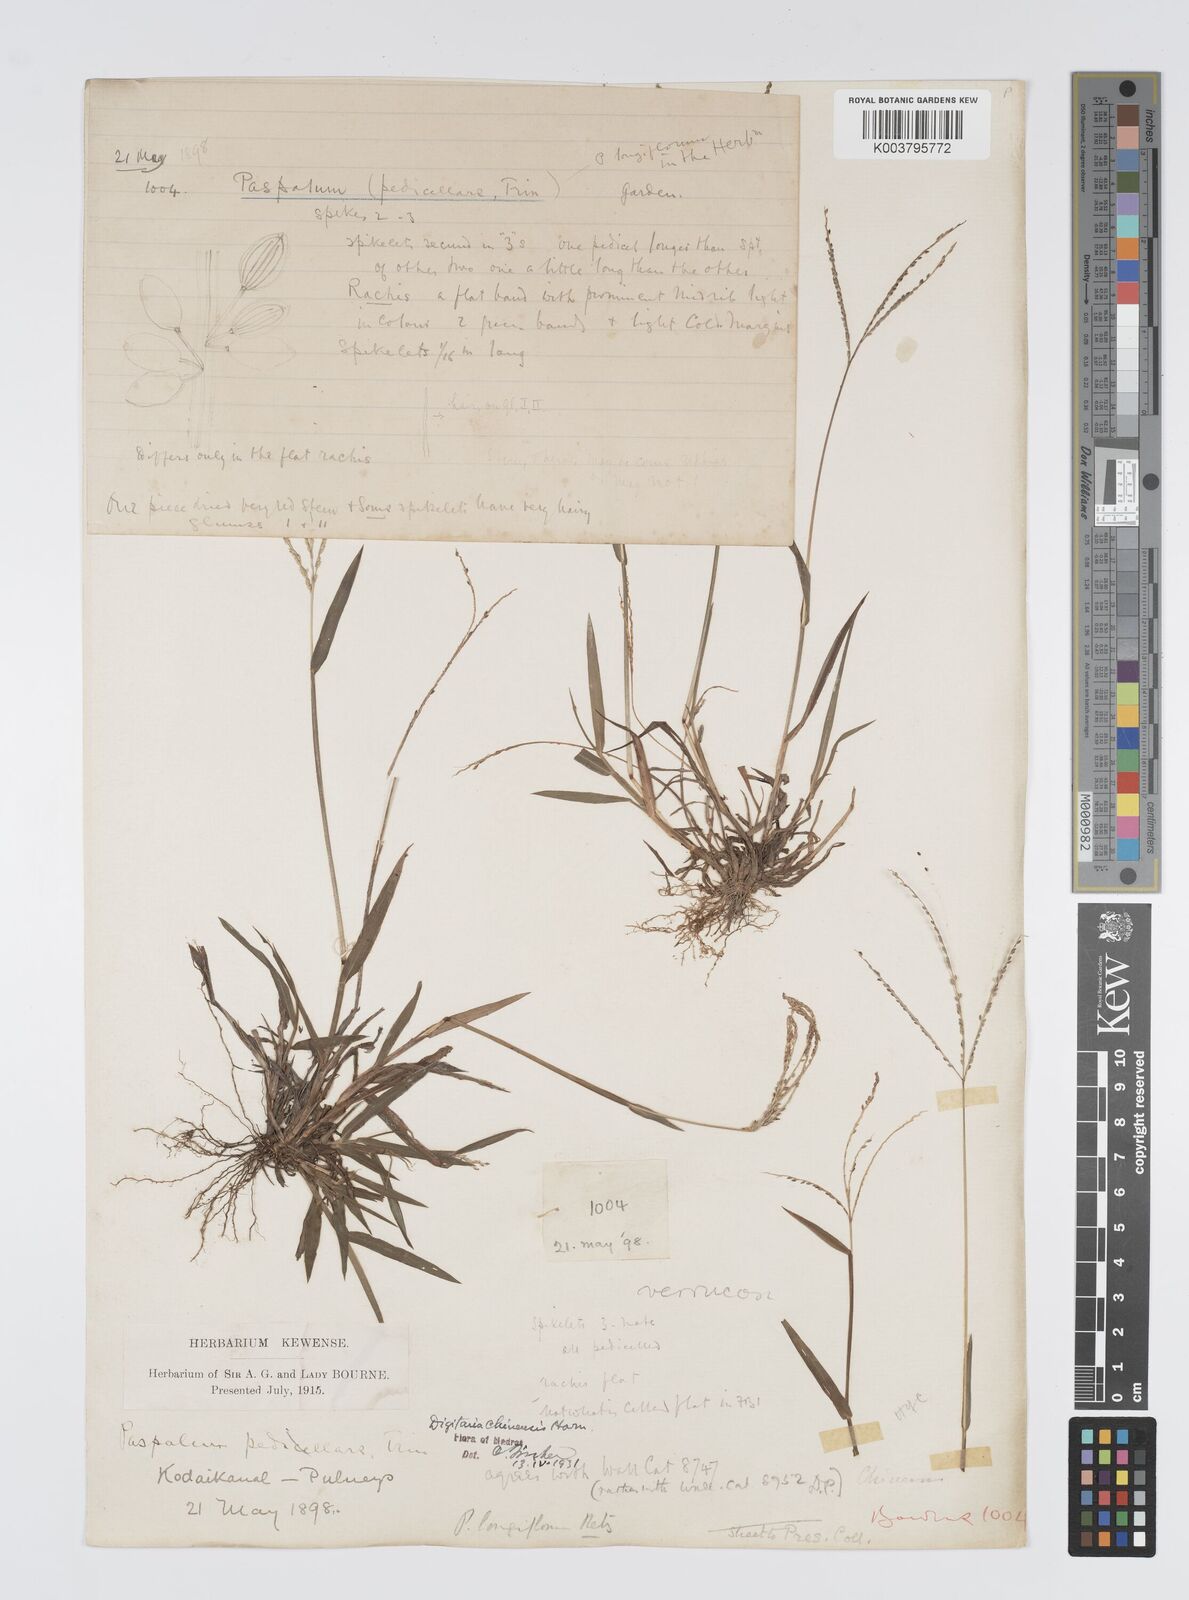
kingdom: Plantae
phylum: Tracheophyta
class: Liliopsida
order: Poales
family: Poaceae
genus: Digitaria
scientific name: Digitaria violascens
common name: Violet crabgrass
